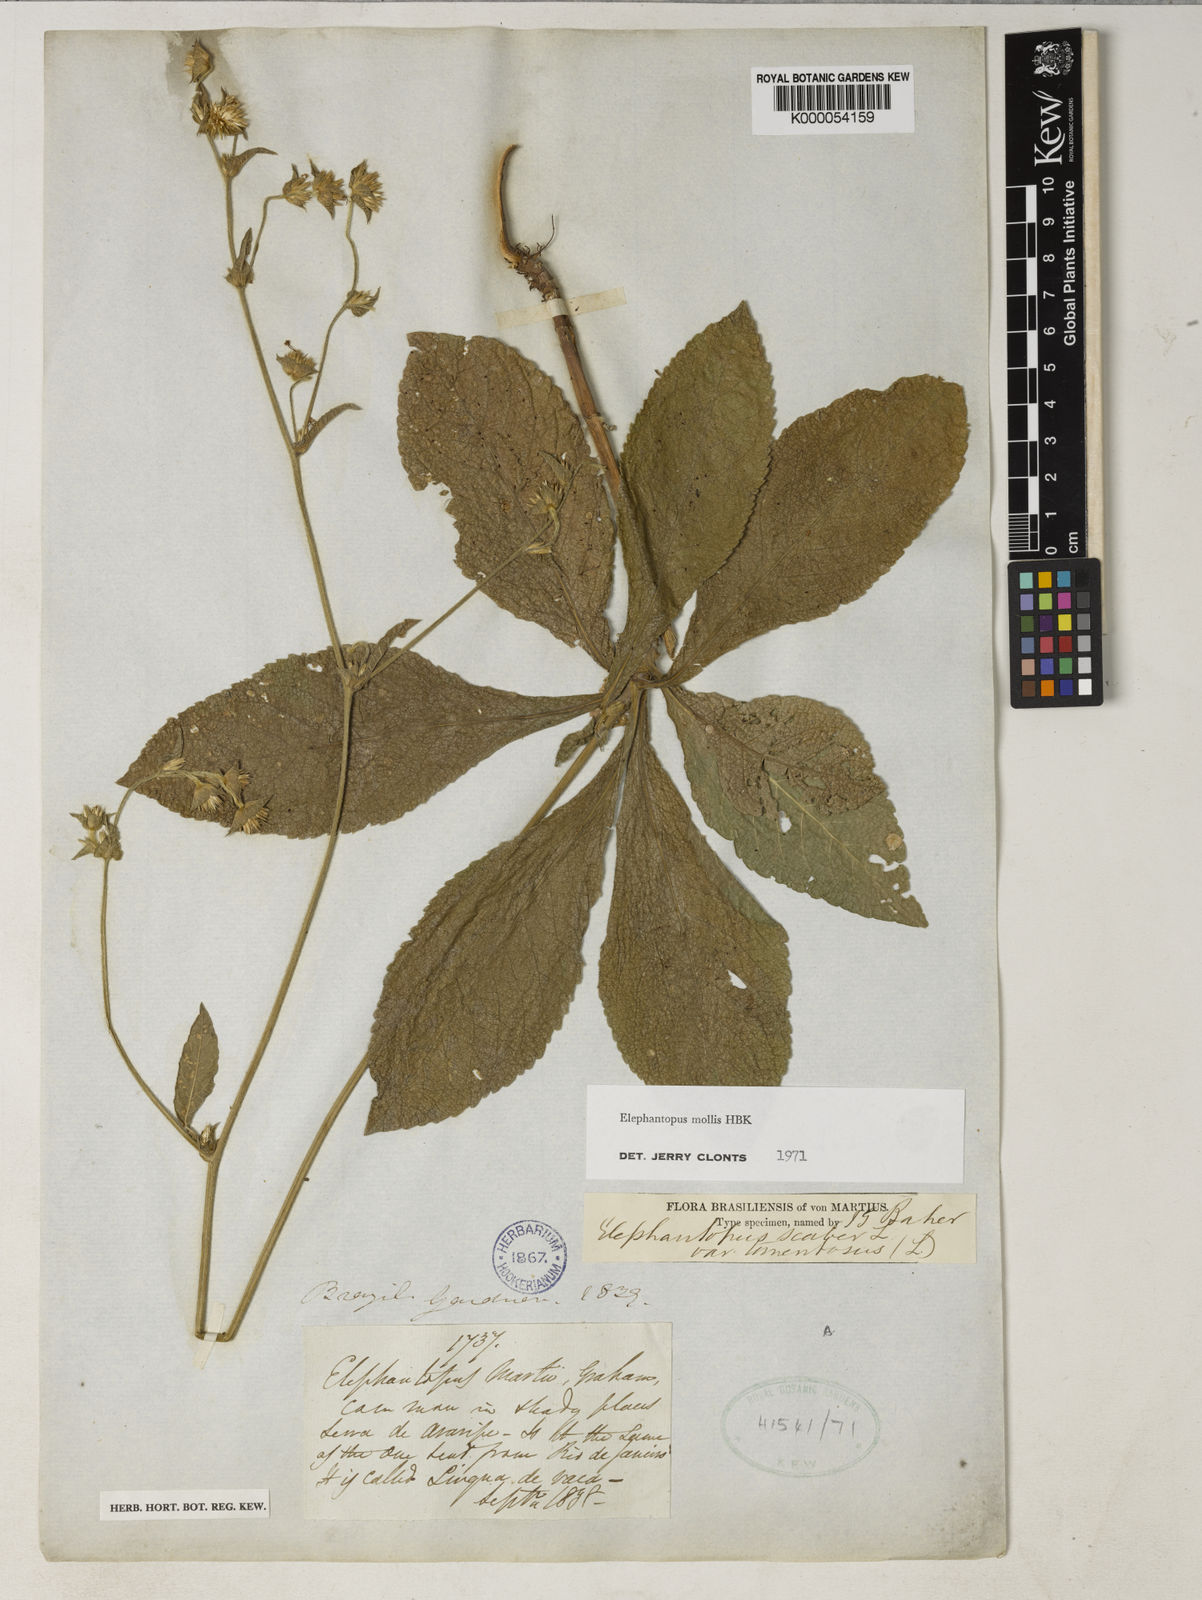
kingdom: Plantae
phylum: Tracheophyta
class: Magnoliopsida
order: Asterales
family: Asteraceae
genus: Elephantopus
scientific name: Elephantopus mollis
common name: Soft elephantsfoot
